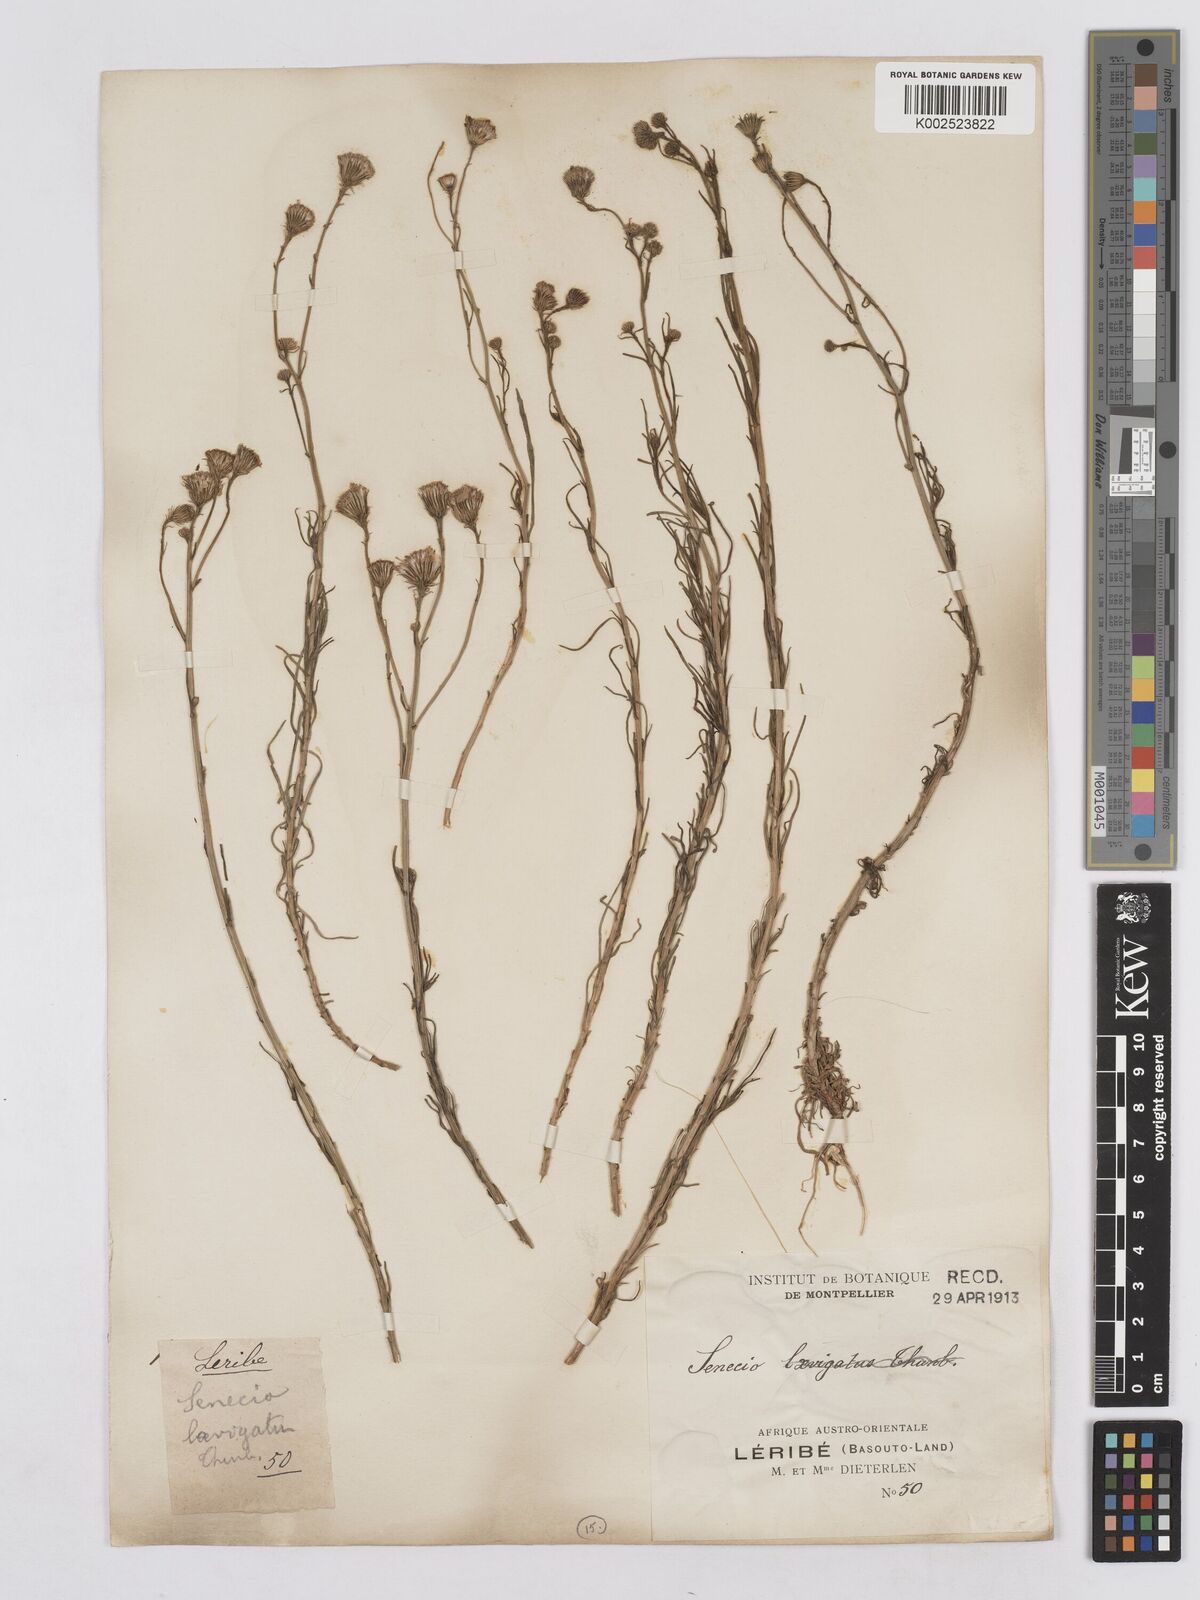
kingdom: Plantae
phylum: Tracheophyta
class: Magnoliopsida
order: Asterales
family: Asteraceae
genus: Senecio
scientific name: Senecio harveyanus
